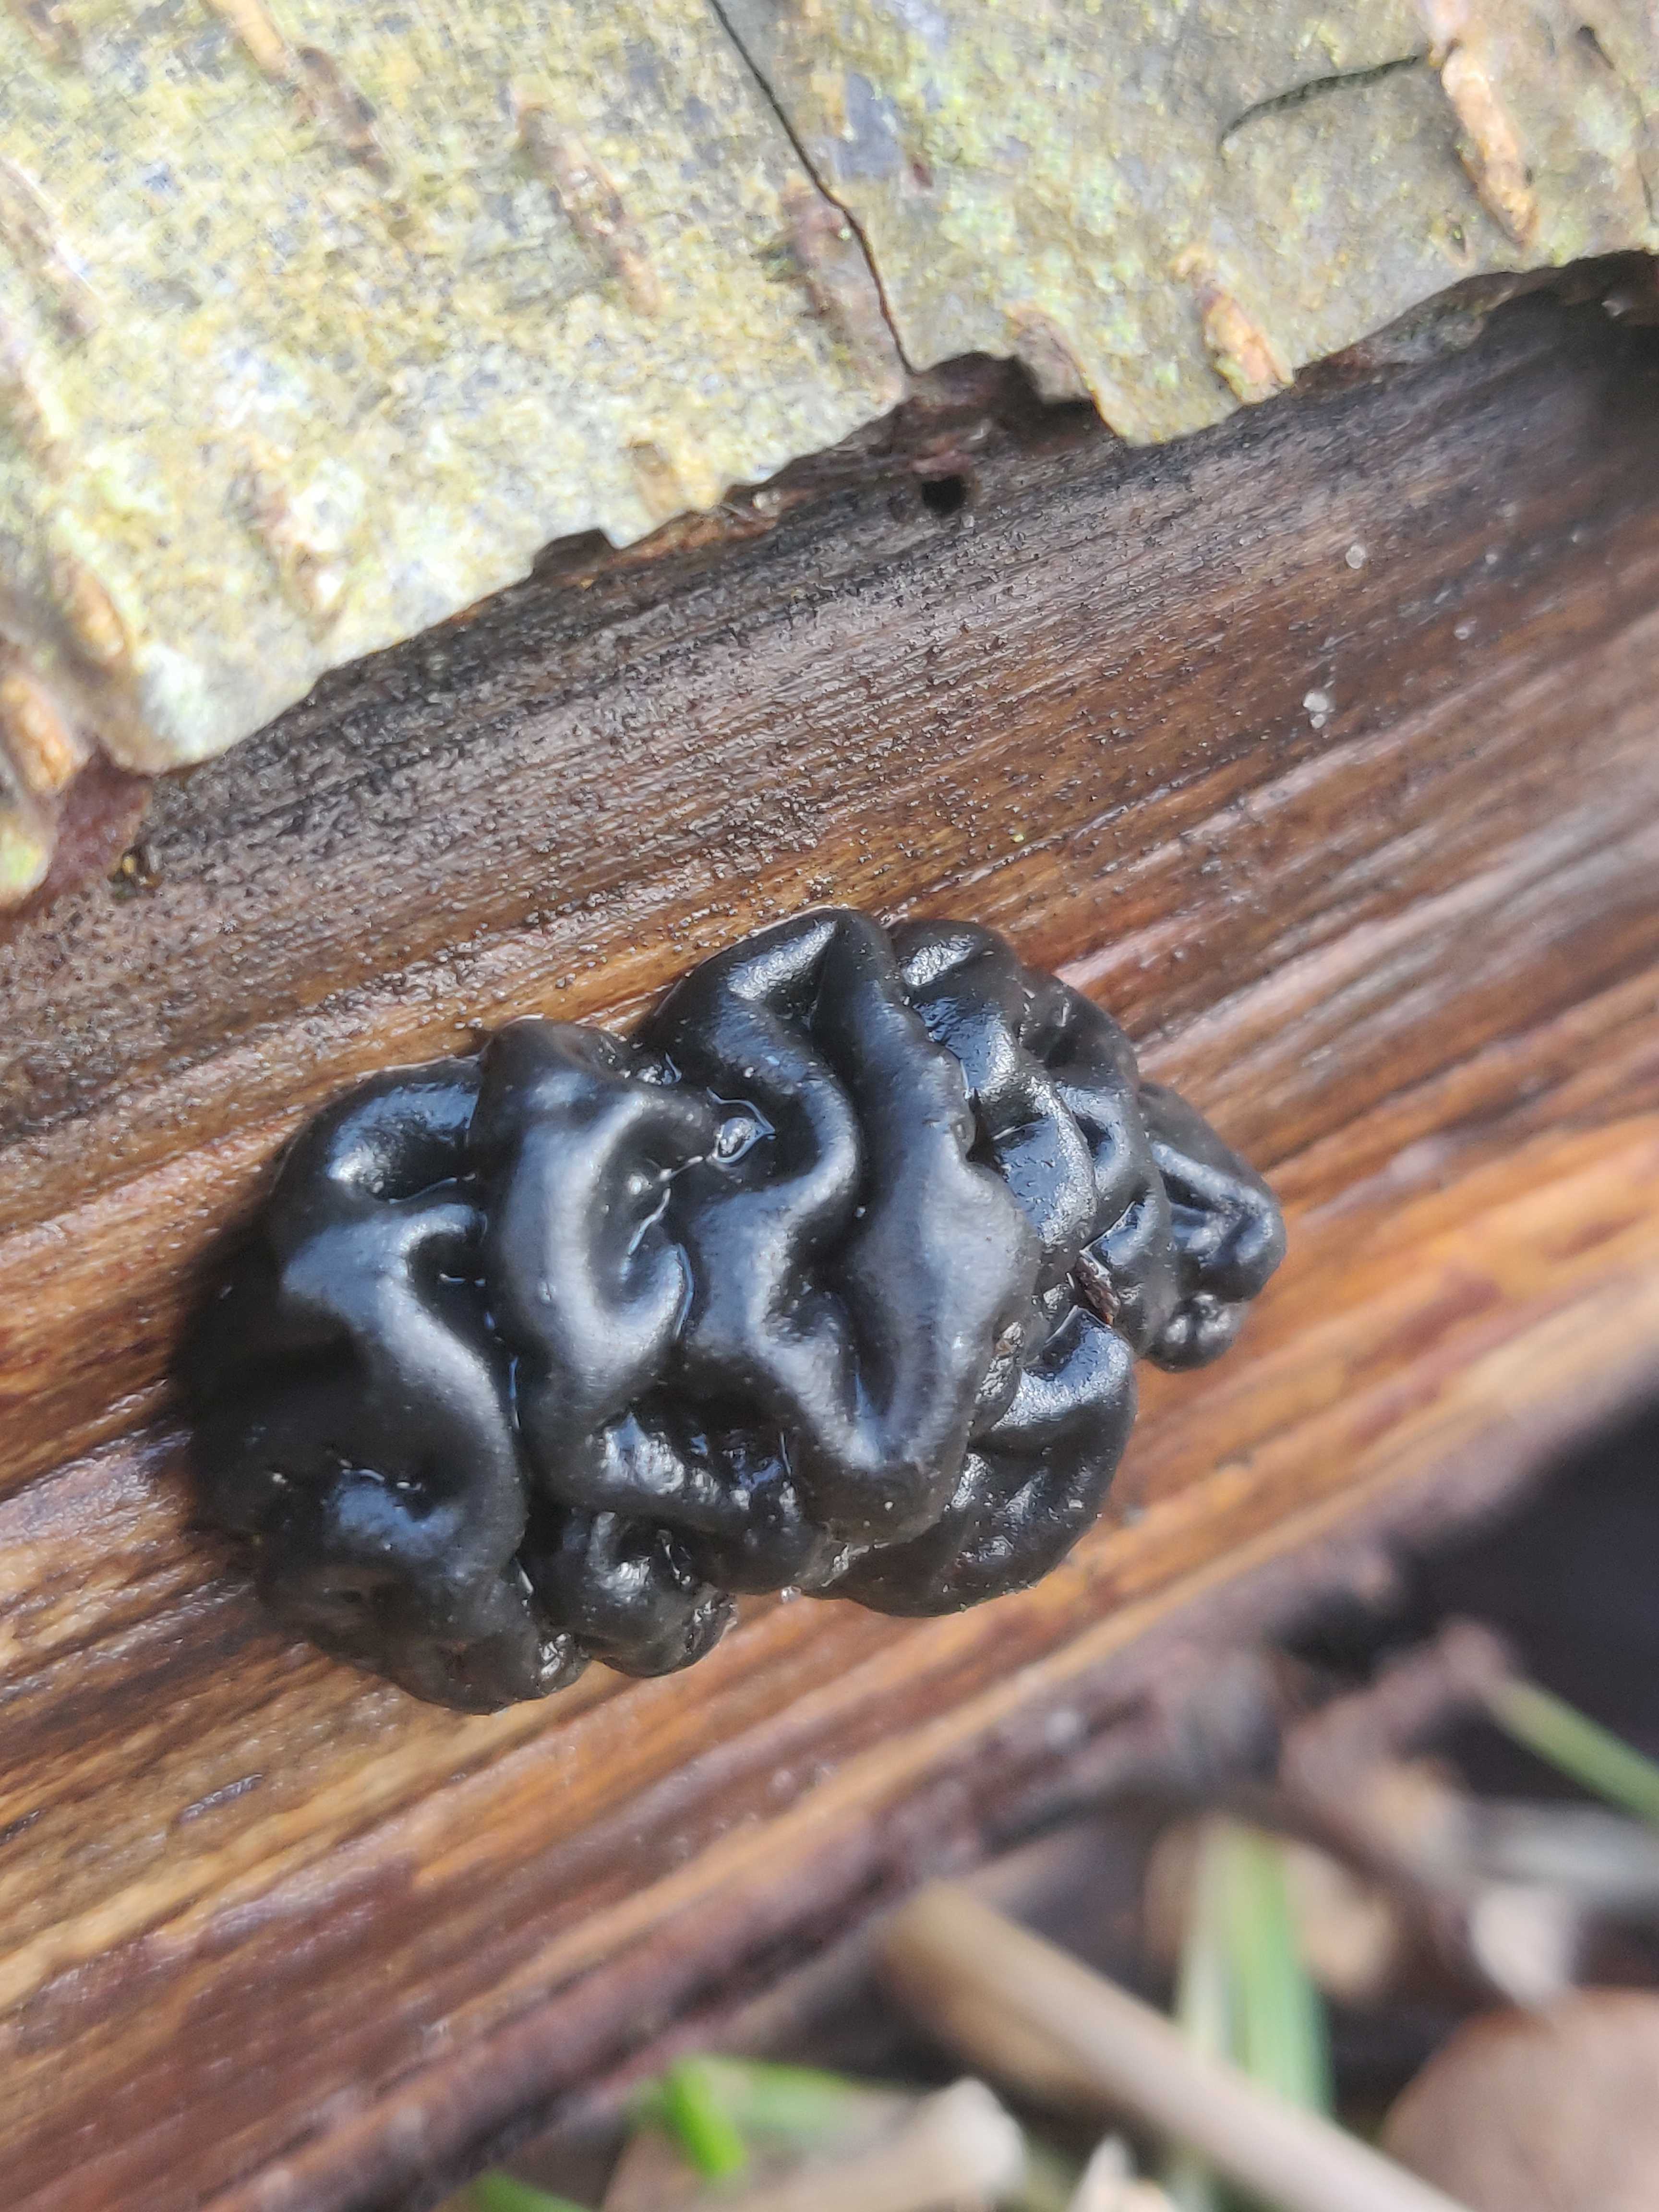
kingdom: Fungi
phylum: Basidiomycota
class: Agaricomycetes
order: Auriculariales
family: Auriculariaceae
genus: Exidia
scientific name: Exidia nigricans
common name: almindelig bævretop
